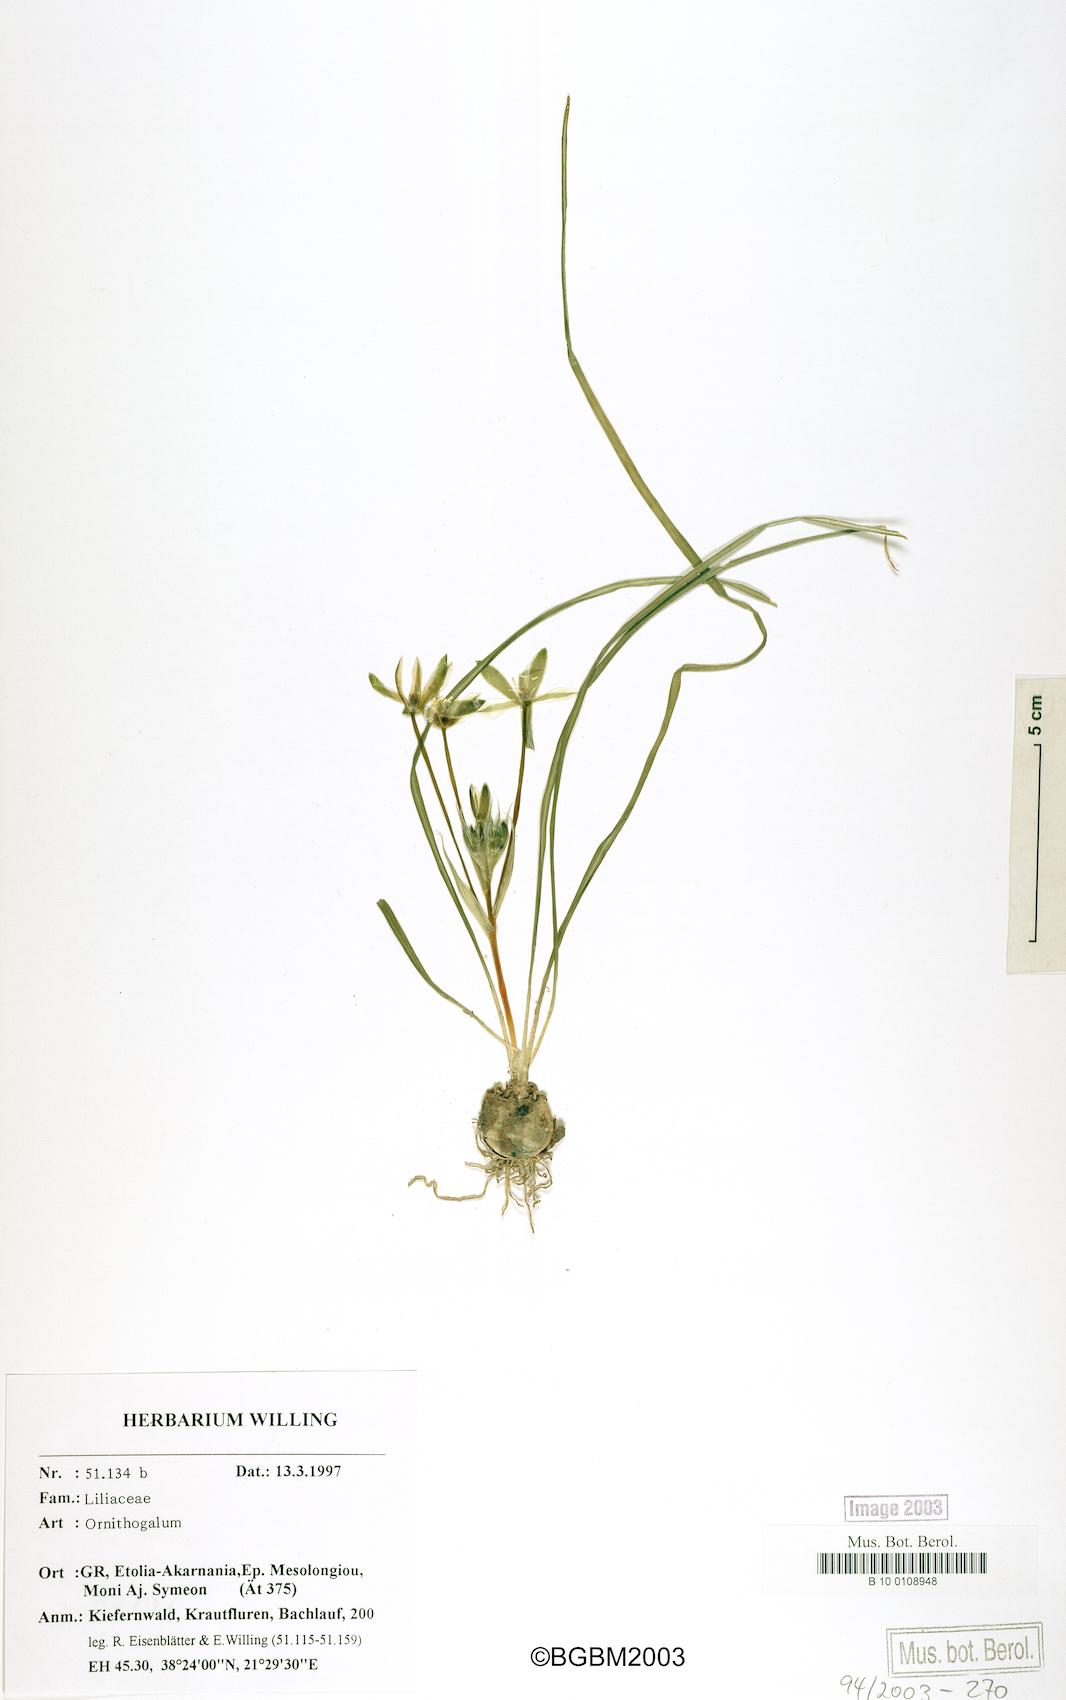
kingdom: Plantae
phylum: Tracheophyta
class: Liliopsida
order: Liliales
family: Liliaceae
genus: Ornithogalum
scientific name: Ornithogalum
